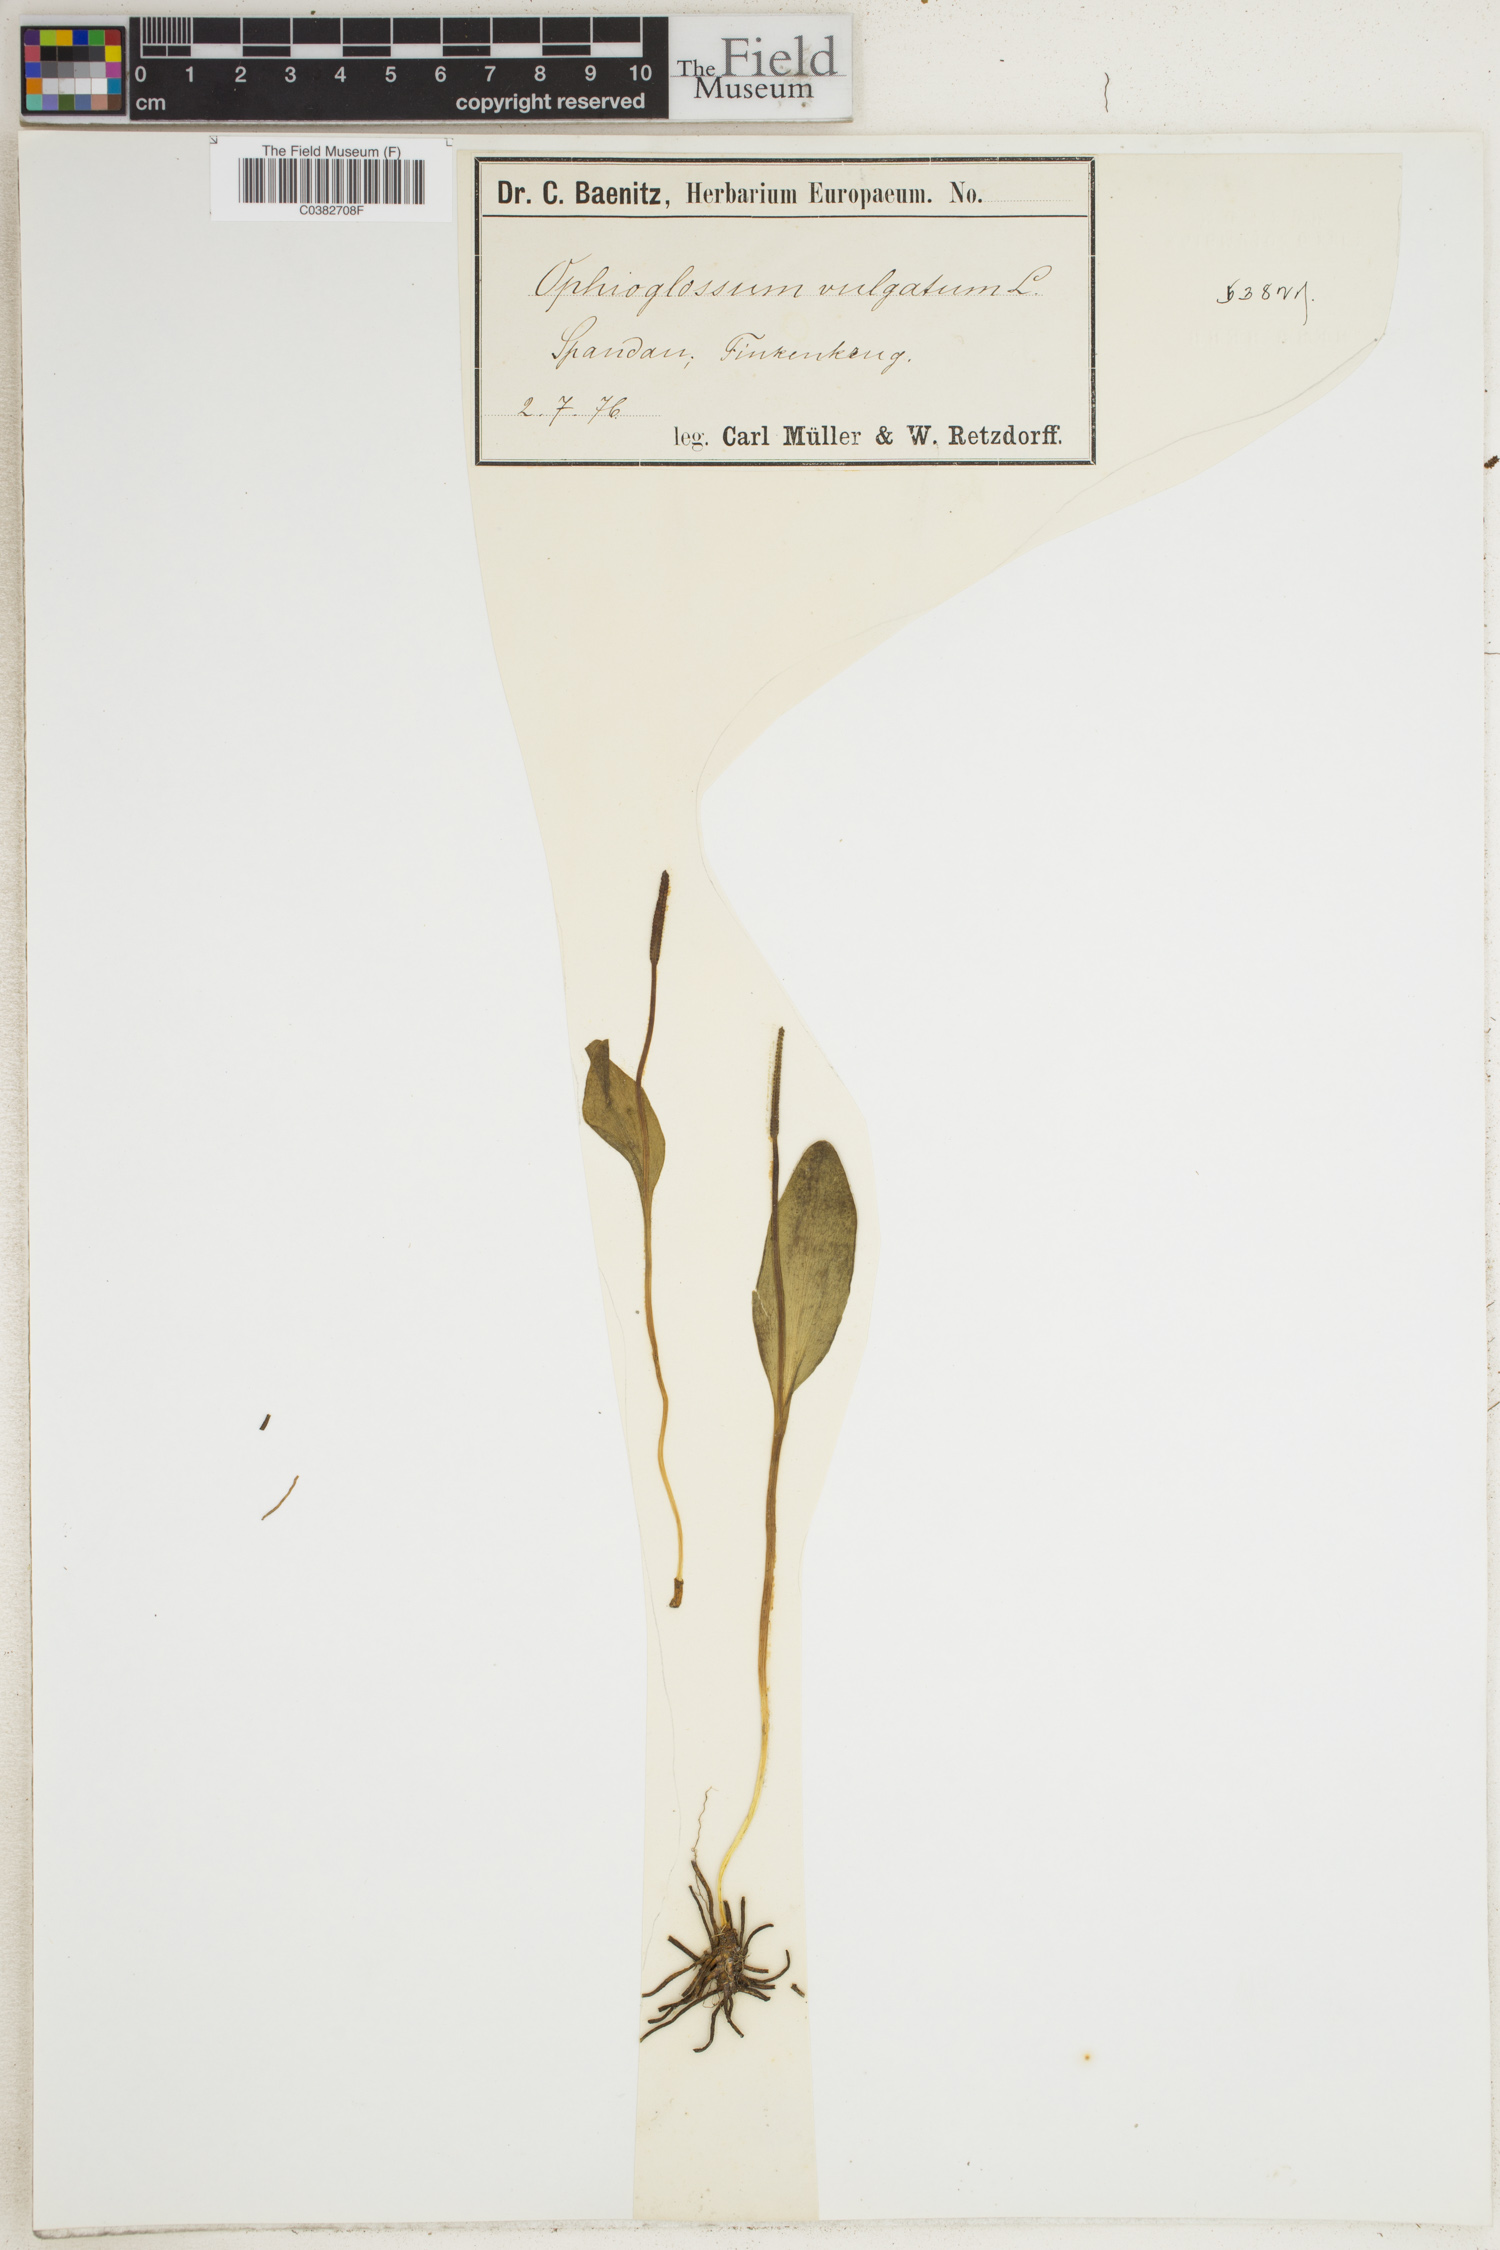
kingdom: Plantae
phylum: Tracheophyta
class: Polypodiopsida
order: Ophioglossales
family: Ophioglossaceae
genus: Ophioglossum
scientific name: Ophioglossum vulgatum
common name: Adder's-tongue
